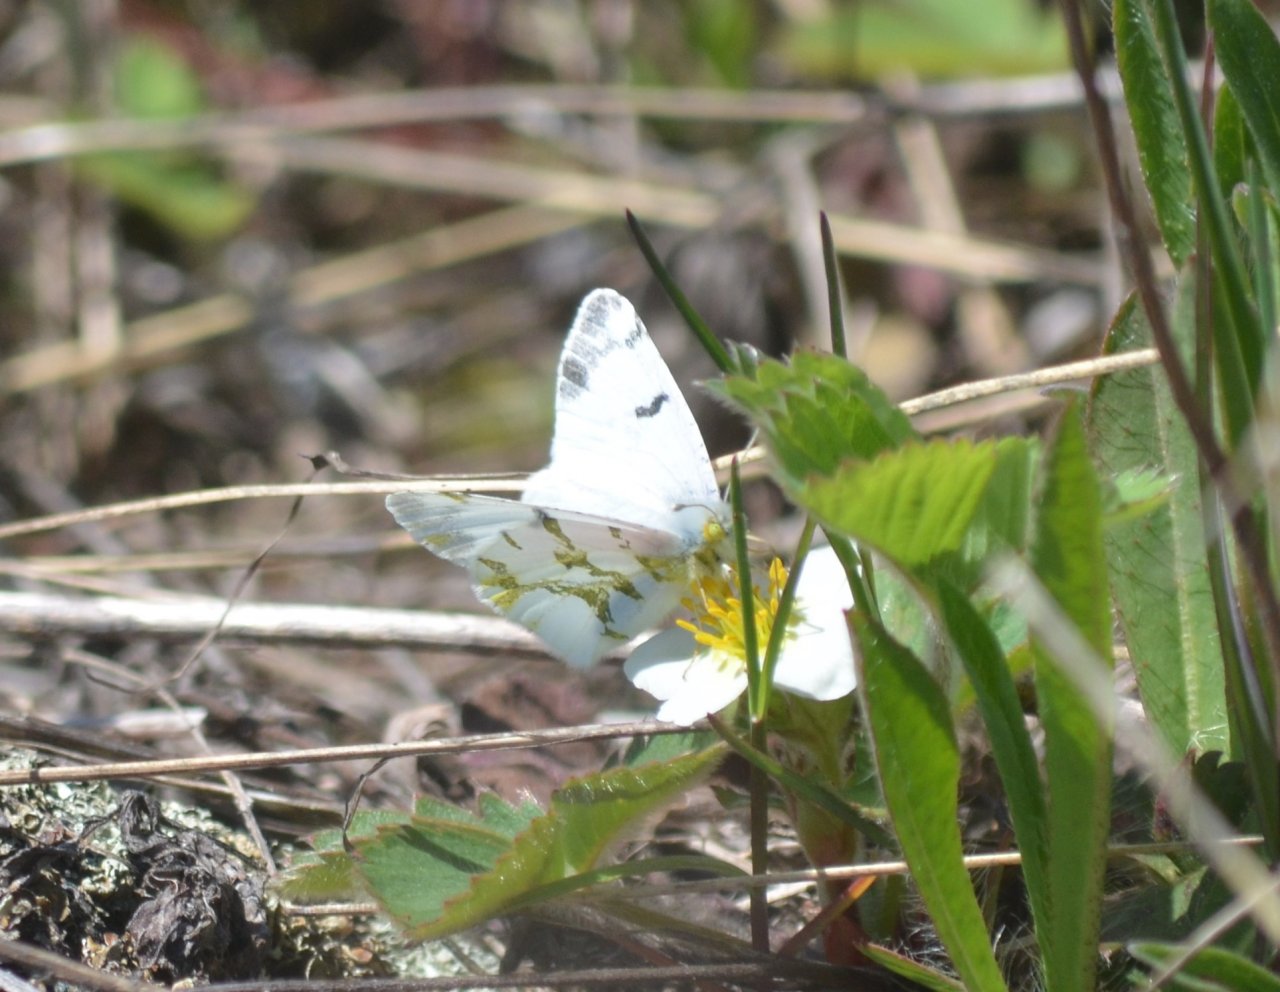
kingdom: Animalia
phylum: Arthropoda
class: Insecta
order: Lepidoptera
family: Pieridae
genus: Euchloe
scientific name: Euchloe olympia
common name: Olympia Marble
